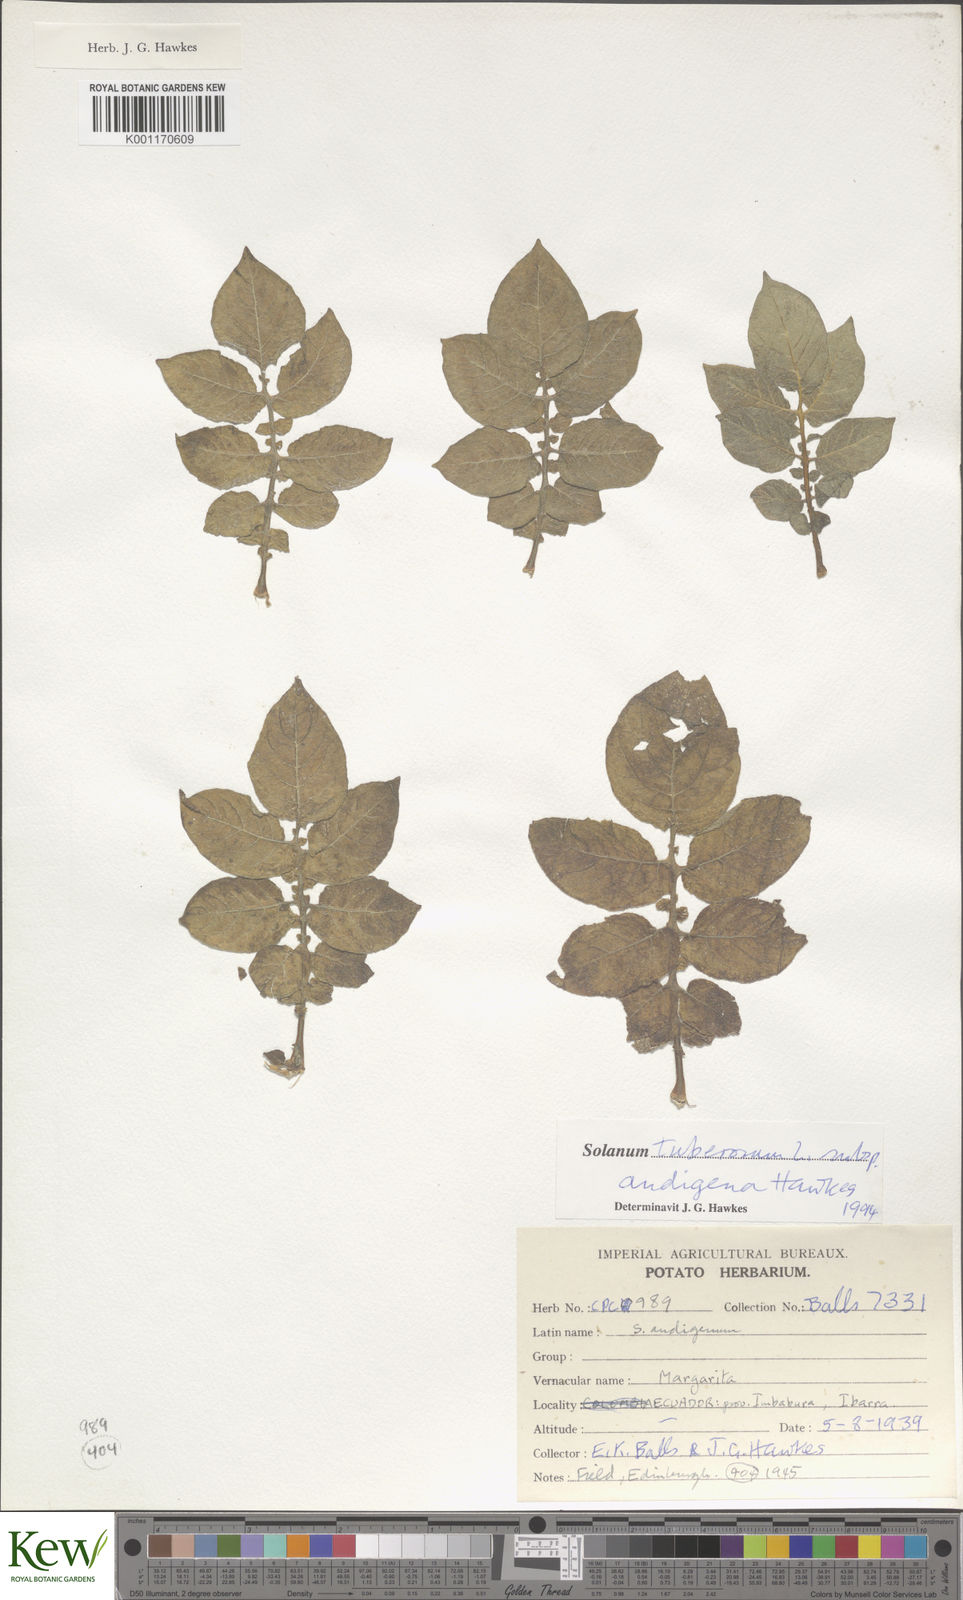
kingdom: Plantae
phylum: Tracheophyta
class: Magnoliopsida
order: Solanales
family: Solanaceae
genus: Solanum
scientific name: Solanum tuberosum
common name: Potato
